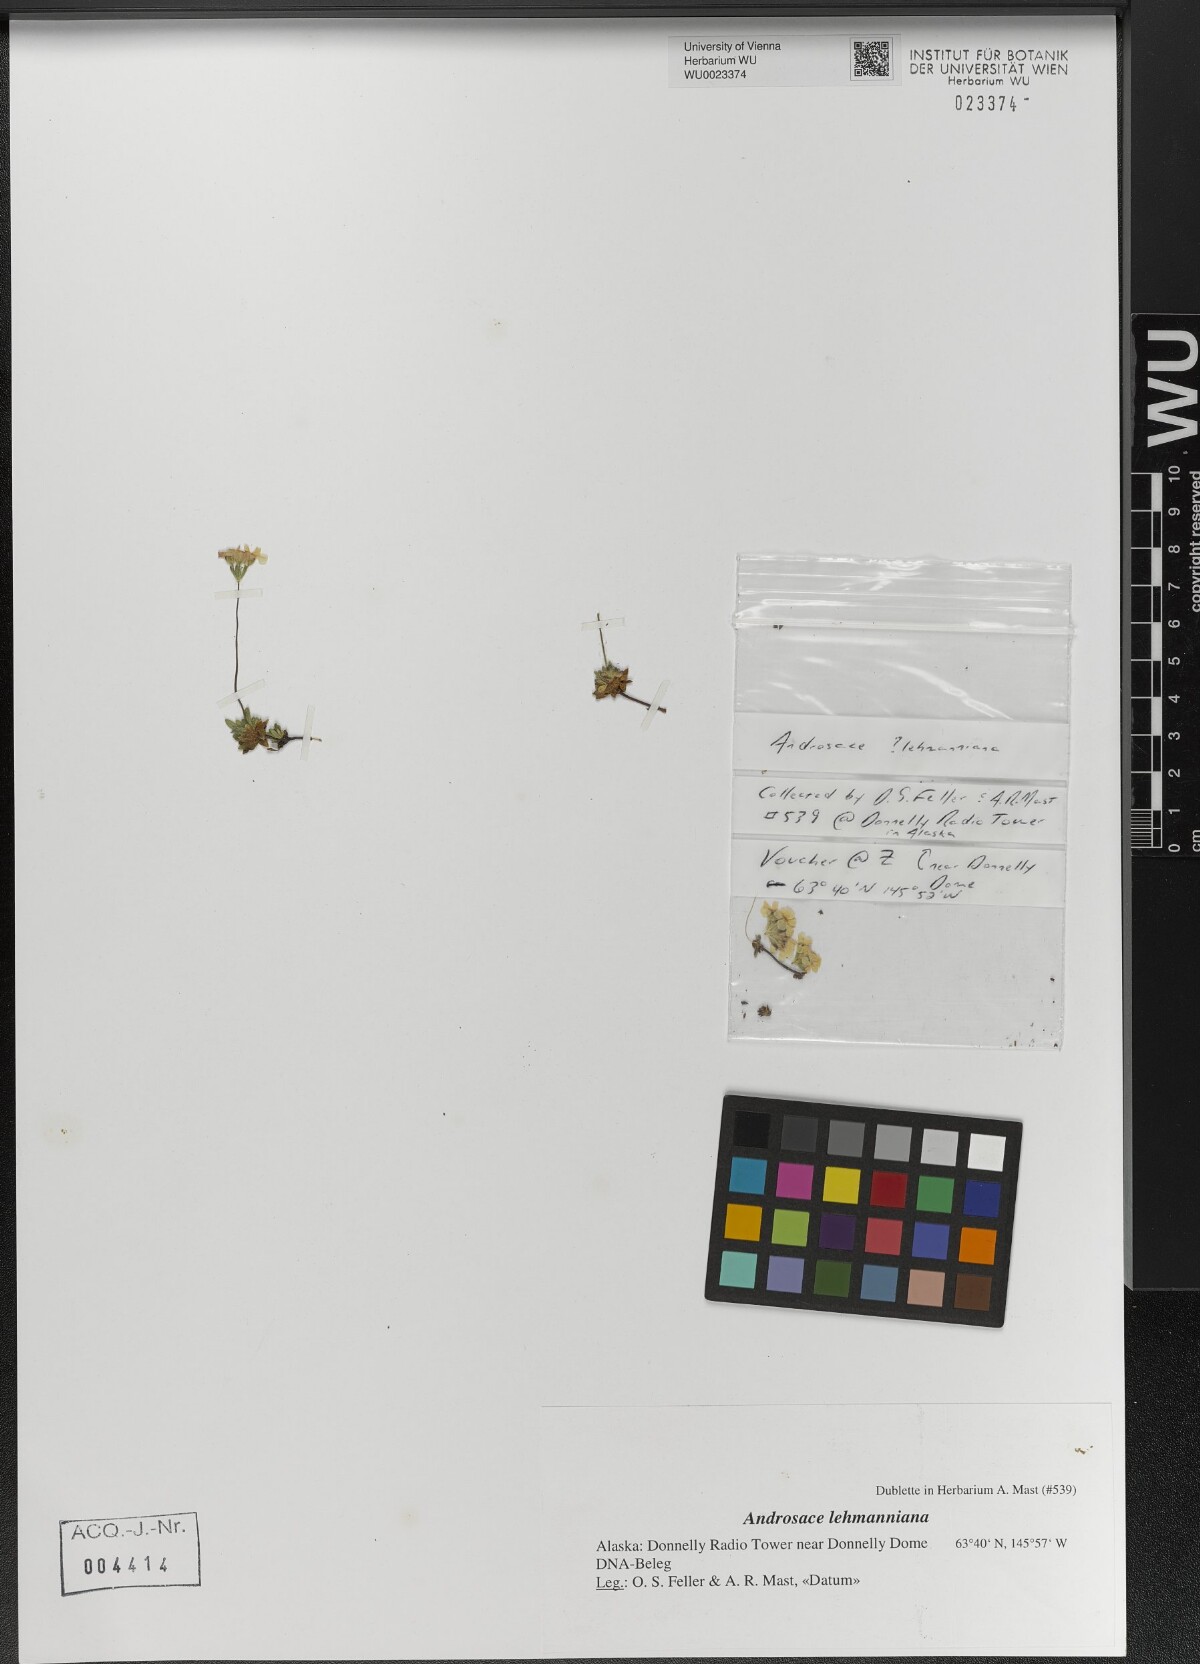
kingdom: Plantae
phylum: Tracheophyta
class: Magnoliopsida
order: Ericales
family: Primulaceae
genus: Androsace
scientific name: Androsace chamaejasme
